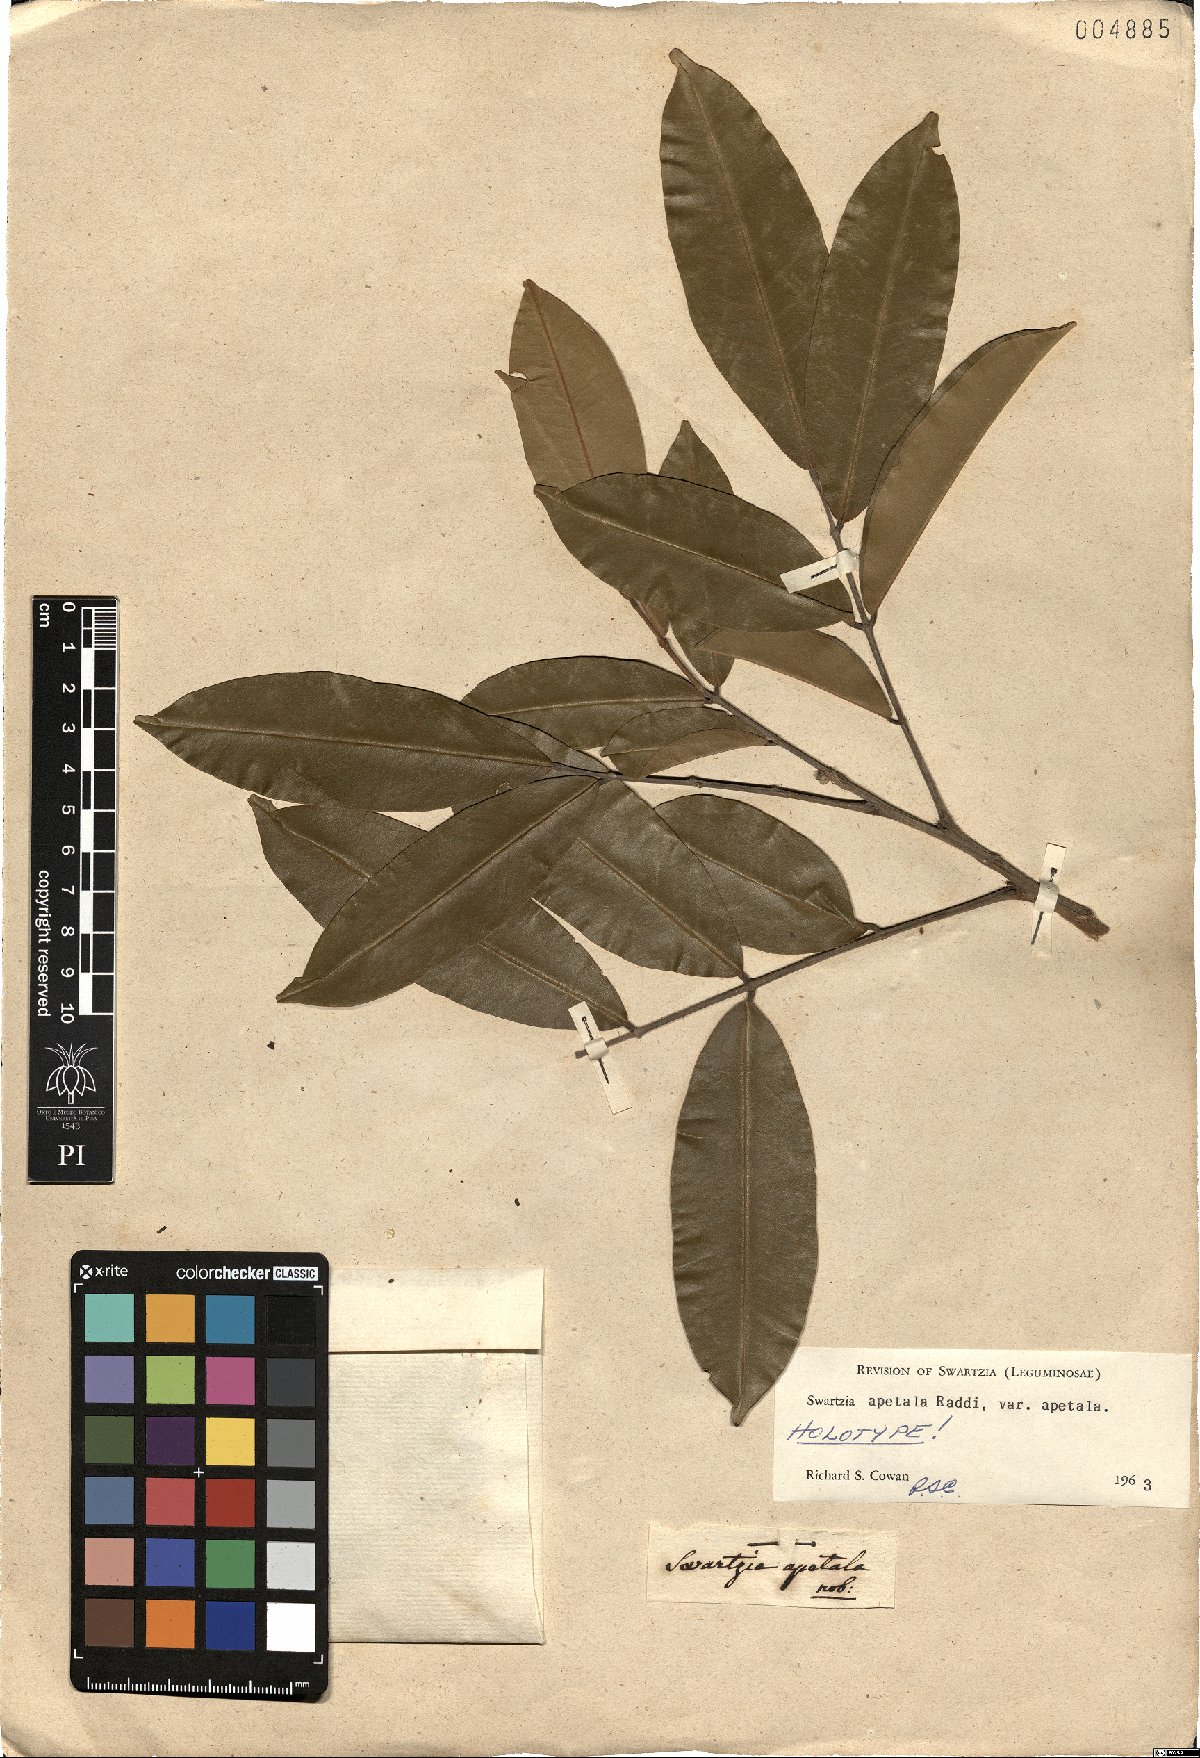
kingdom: Plantae
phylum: Tracheophyta
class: Magnoliopsida
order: Fabales
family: Fabaceae
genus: Swartzia
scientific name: Swartzia apetala
